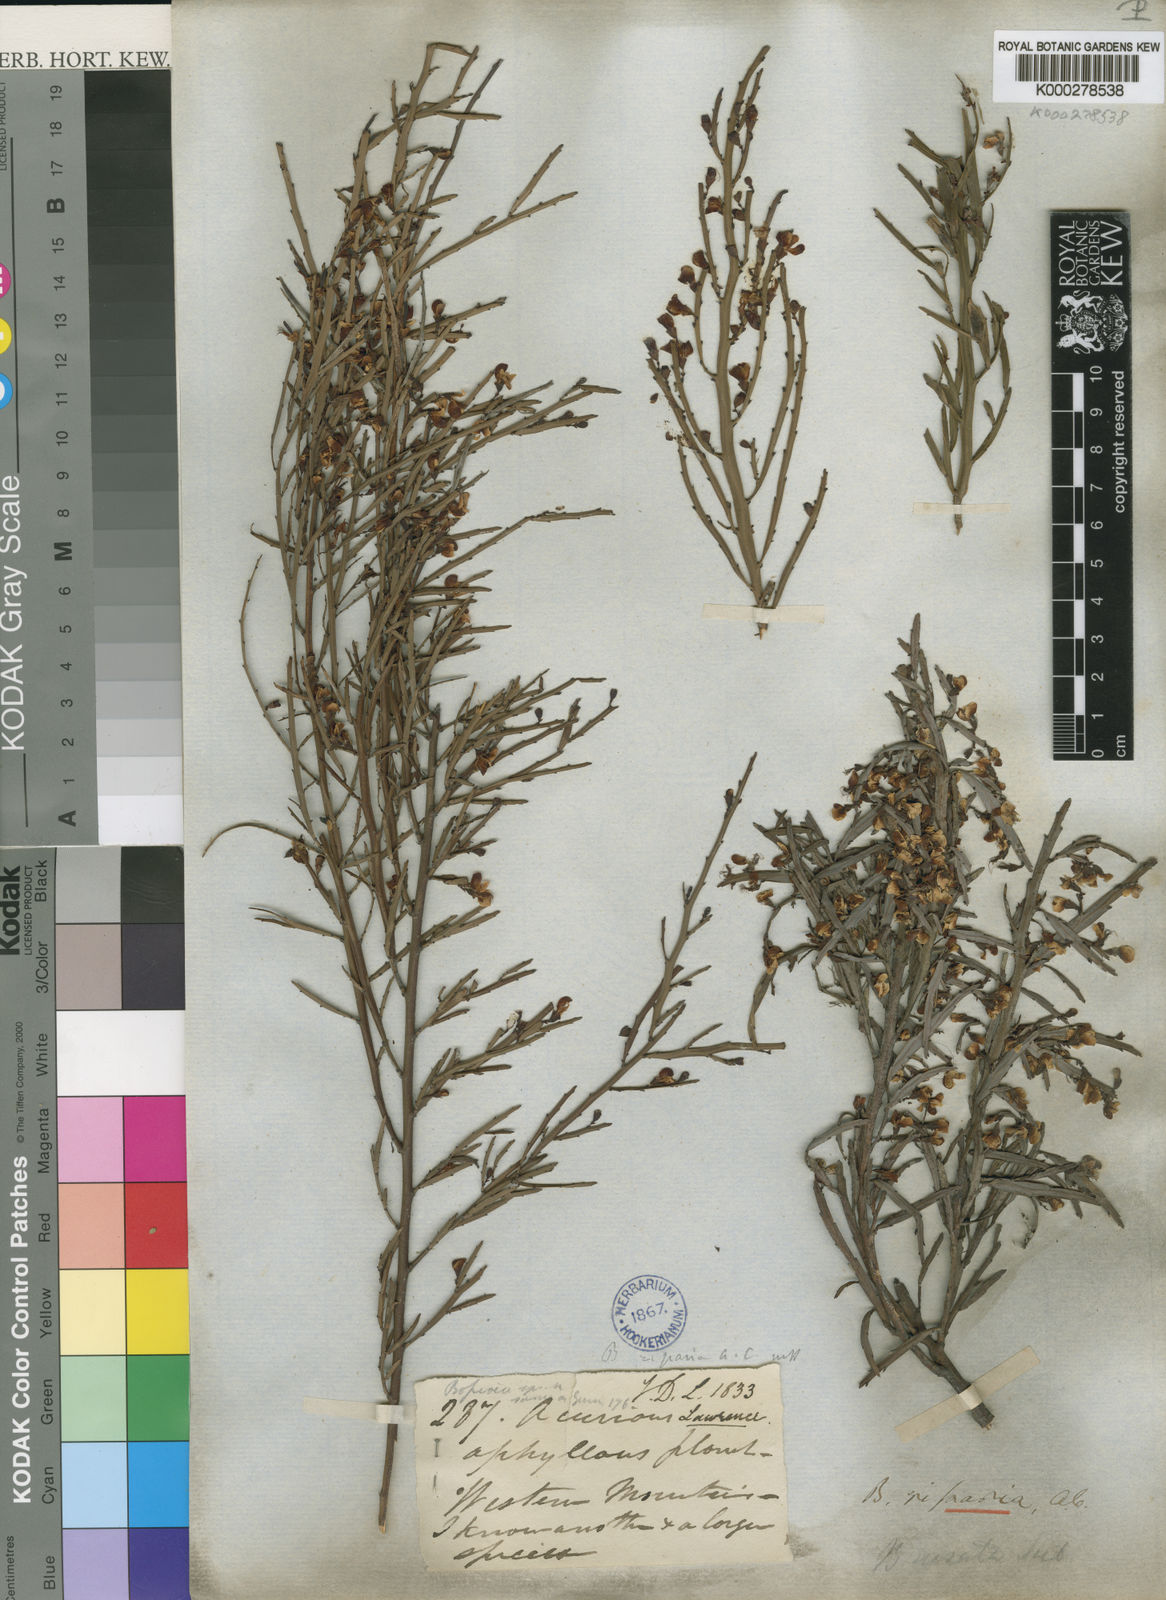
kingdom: Plantae
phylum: Tracheophyta
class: Magnoliopsida
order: Fabales
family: Fabaceae
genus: Bossiaea
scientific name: Bossiaea riparia
